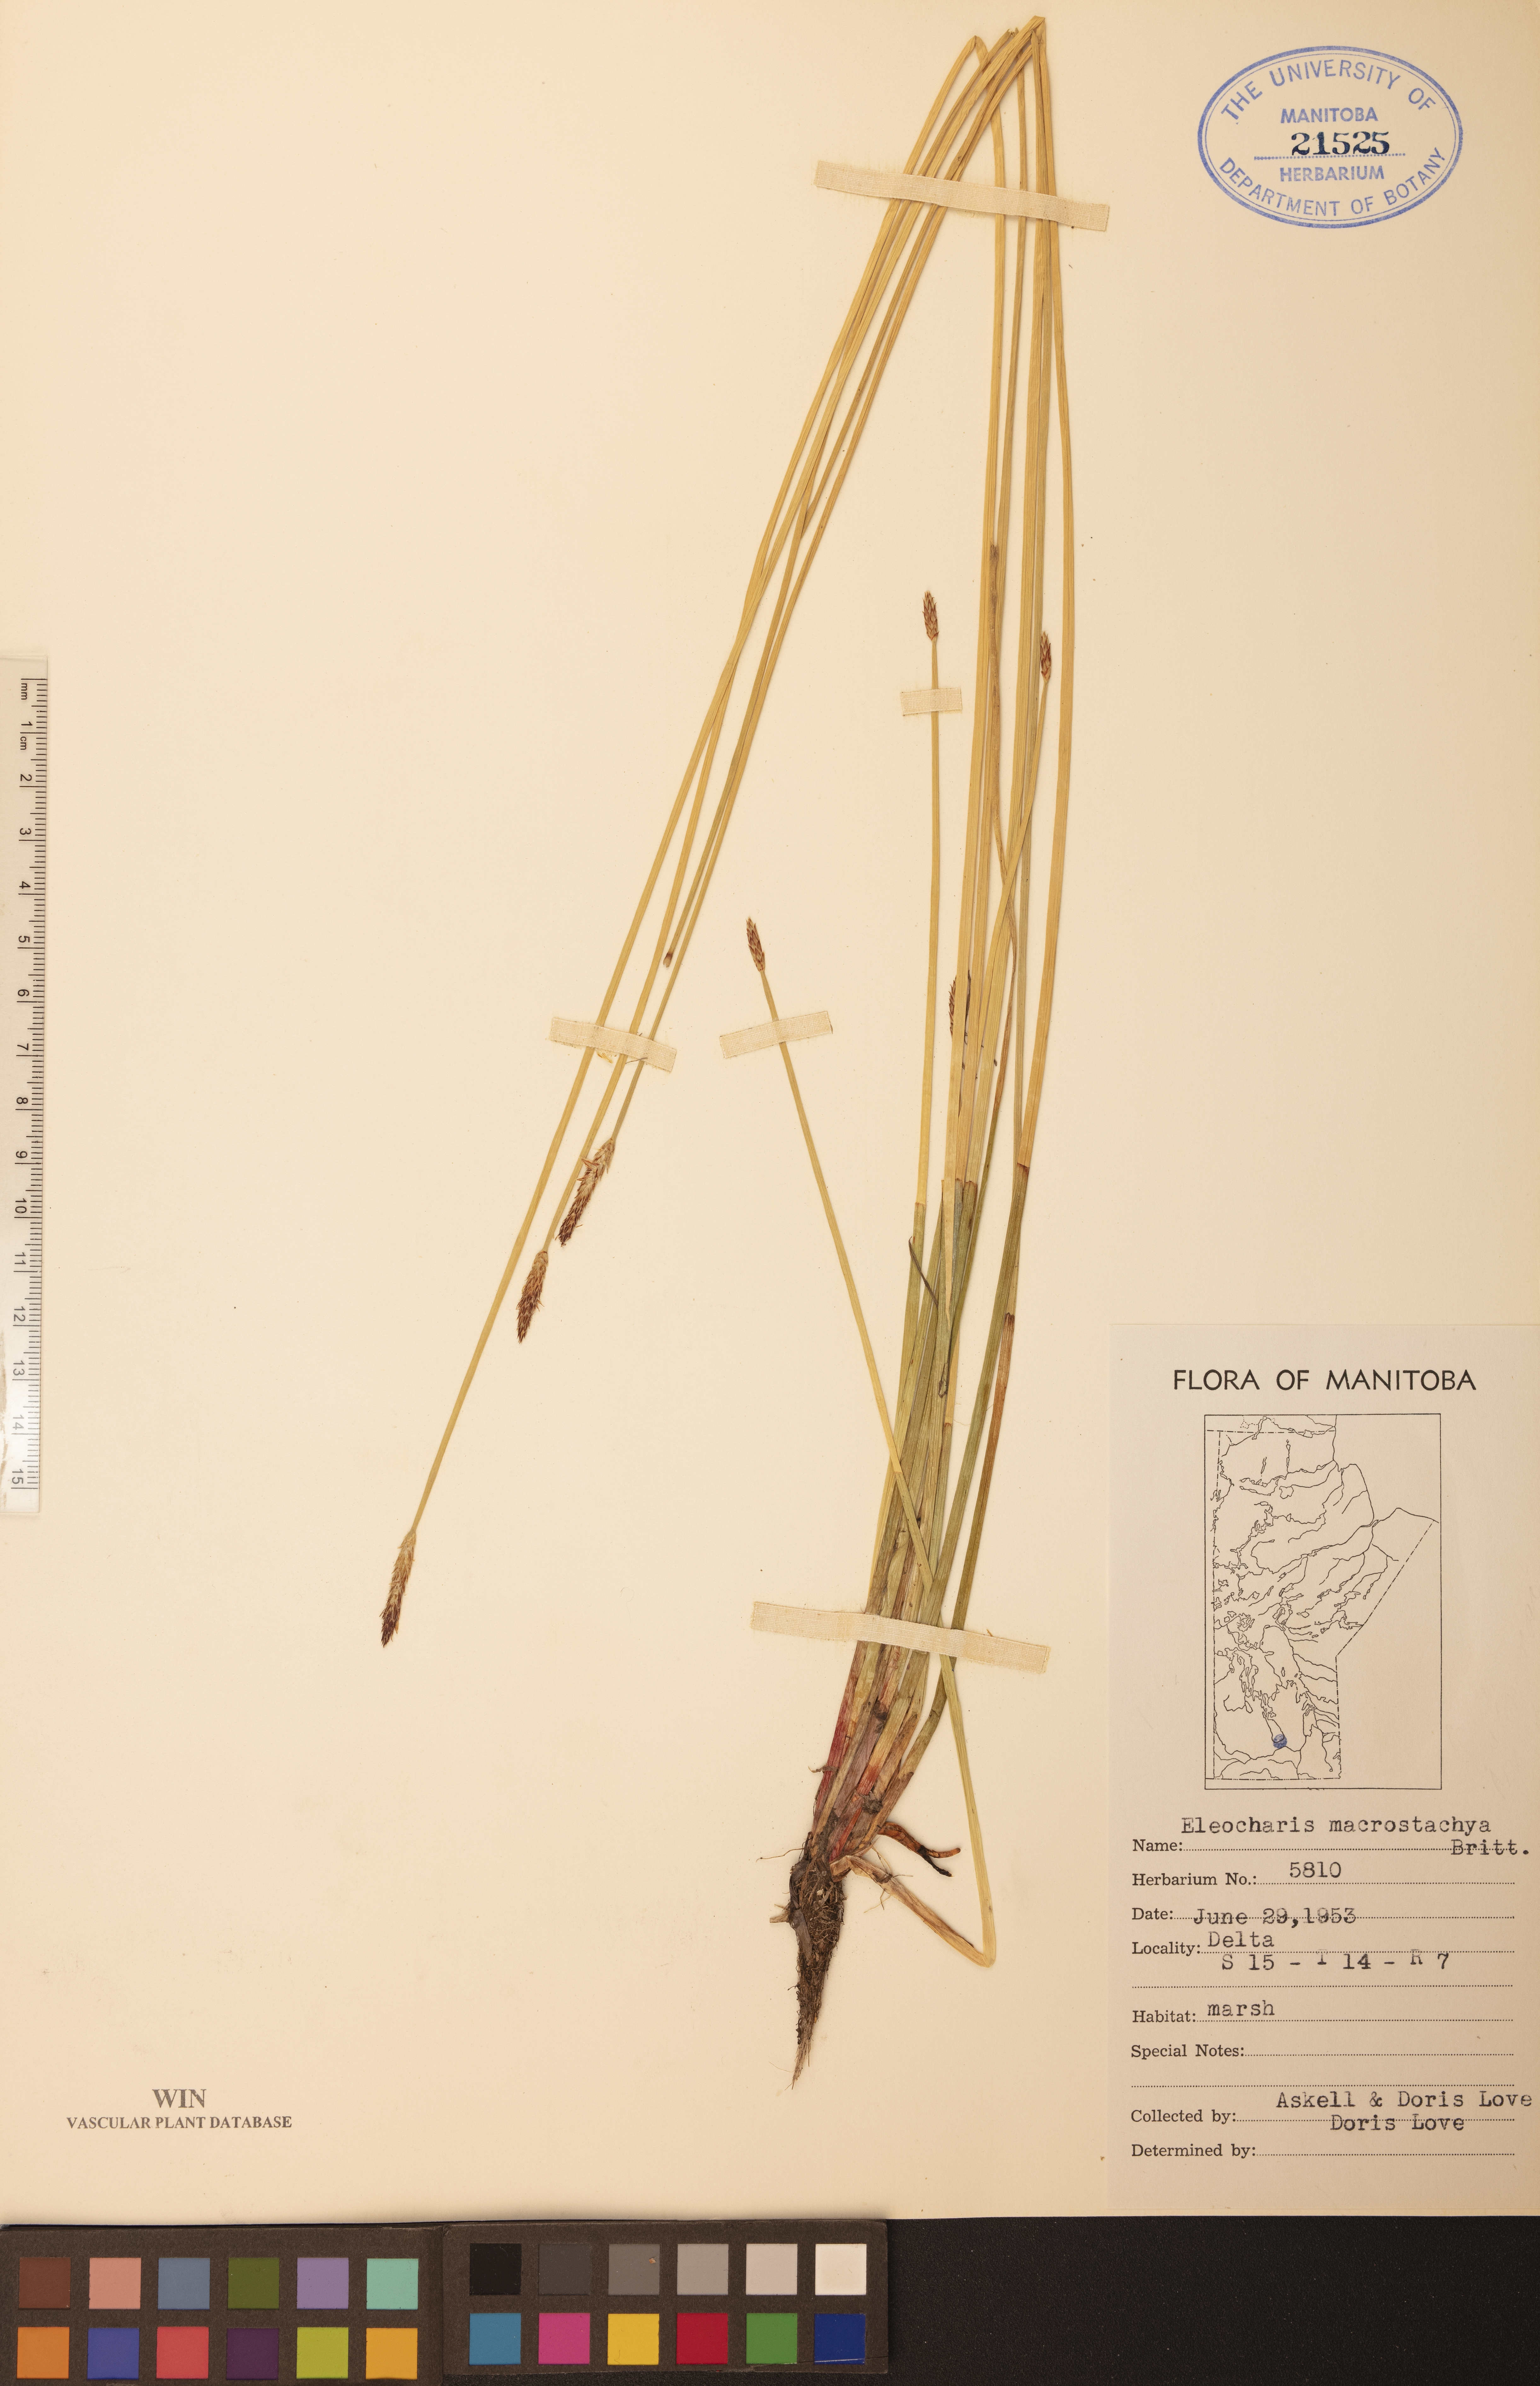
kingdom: Plantae
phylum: Tracheophyta
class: Liliopsida
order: Poales
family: Cyperaceae
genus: Eleocharis
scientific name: Eleocharis macrostachya
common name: Pale spikerush
